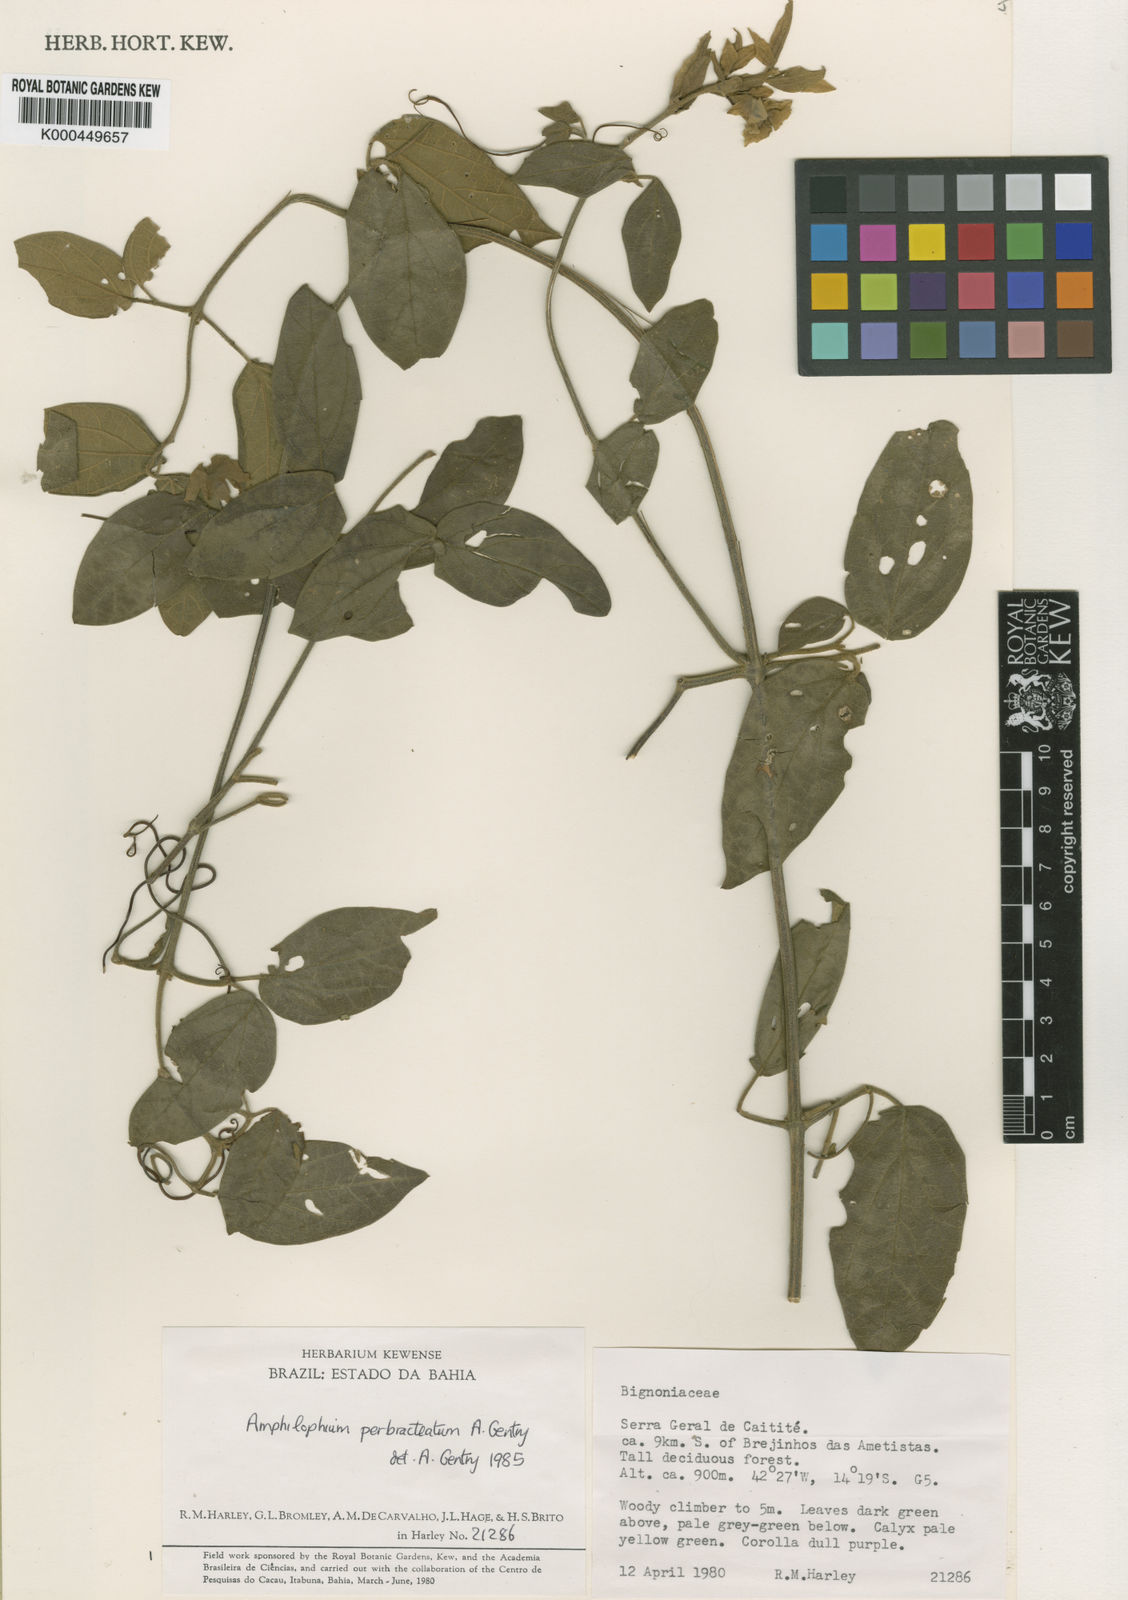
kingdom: Plantae
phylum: Tracheophyta
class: Magnoliopsida
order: Lamiales
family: Bignoniaceae
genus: Amphilophium
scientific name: Amphilophium perbracteatum
